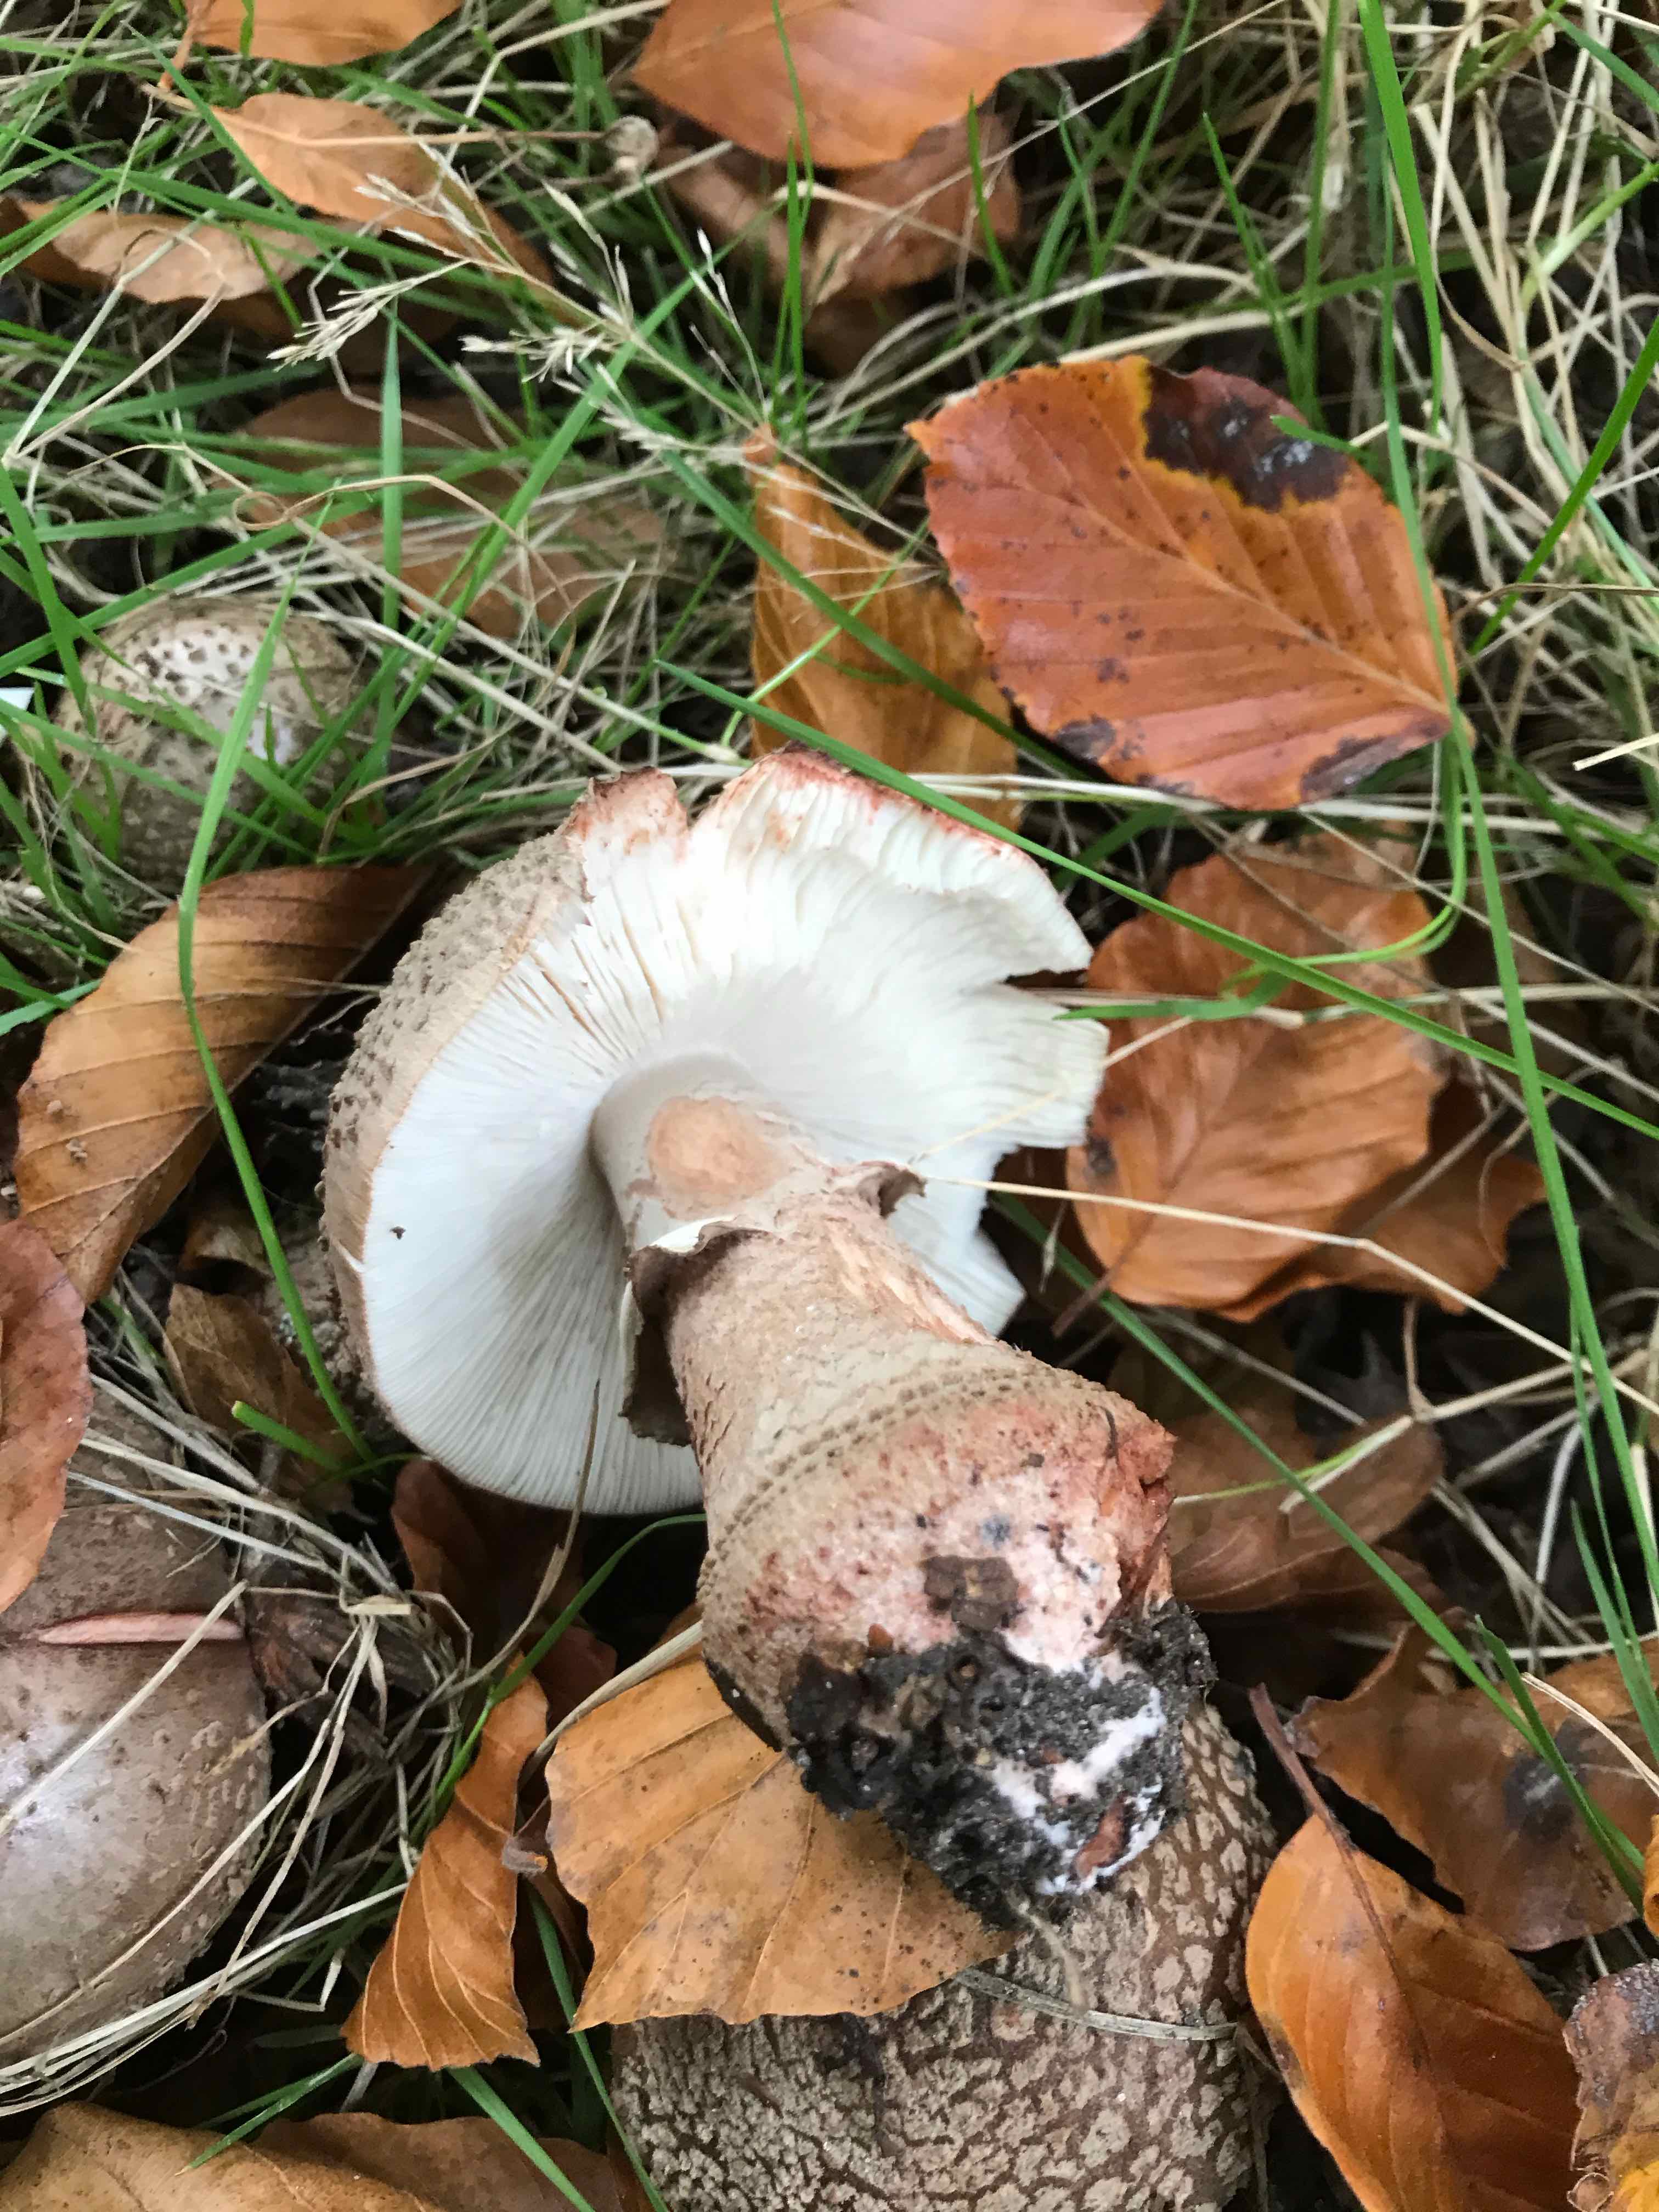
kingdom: Fungi
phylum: Basidiomycota
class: Agaricomycetes
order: Agaricales
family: Amanitaceae
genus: Amanita
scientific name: Amanita rubescens
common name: rødmende fluesvamp
